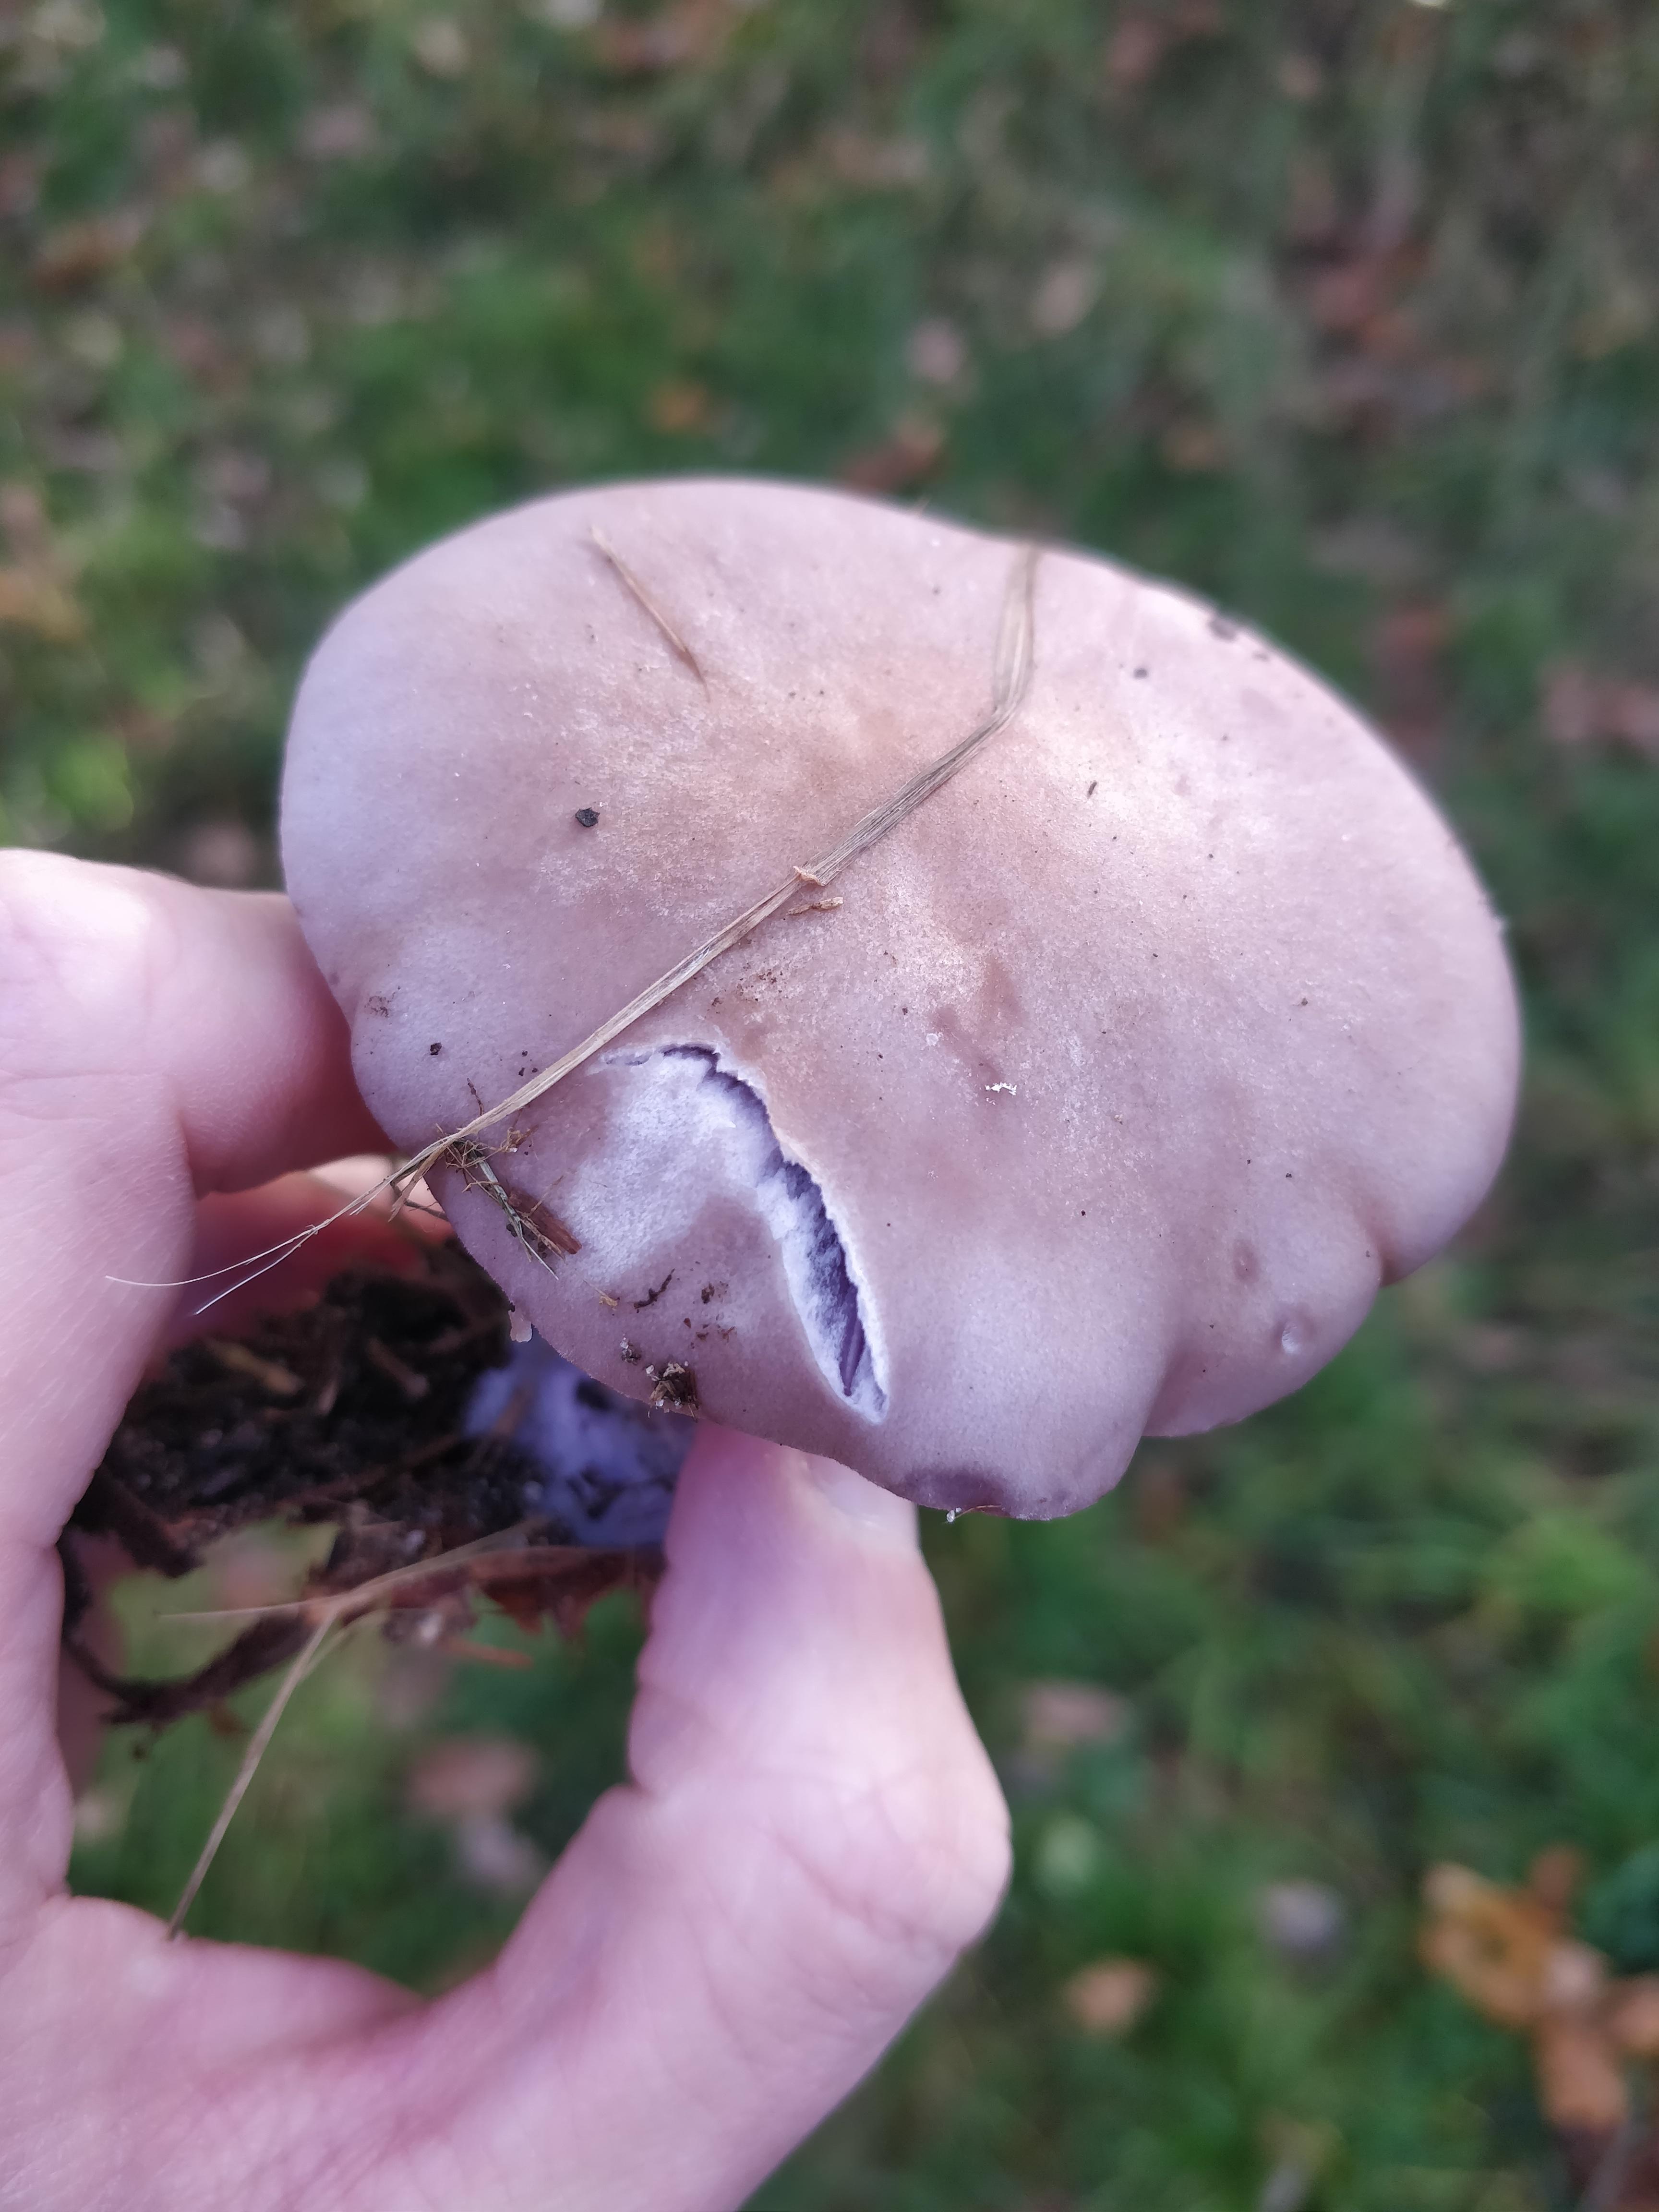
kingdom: Fungi
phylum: Basidiomycota
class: Agaricomycetes
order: Agaricales
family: Tricholomataceae
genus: Lepista
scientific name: Lepista nuda
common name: violet hekseringshat
